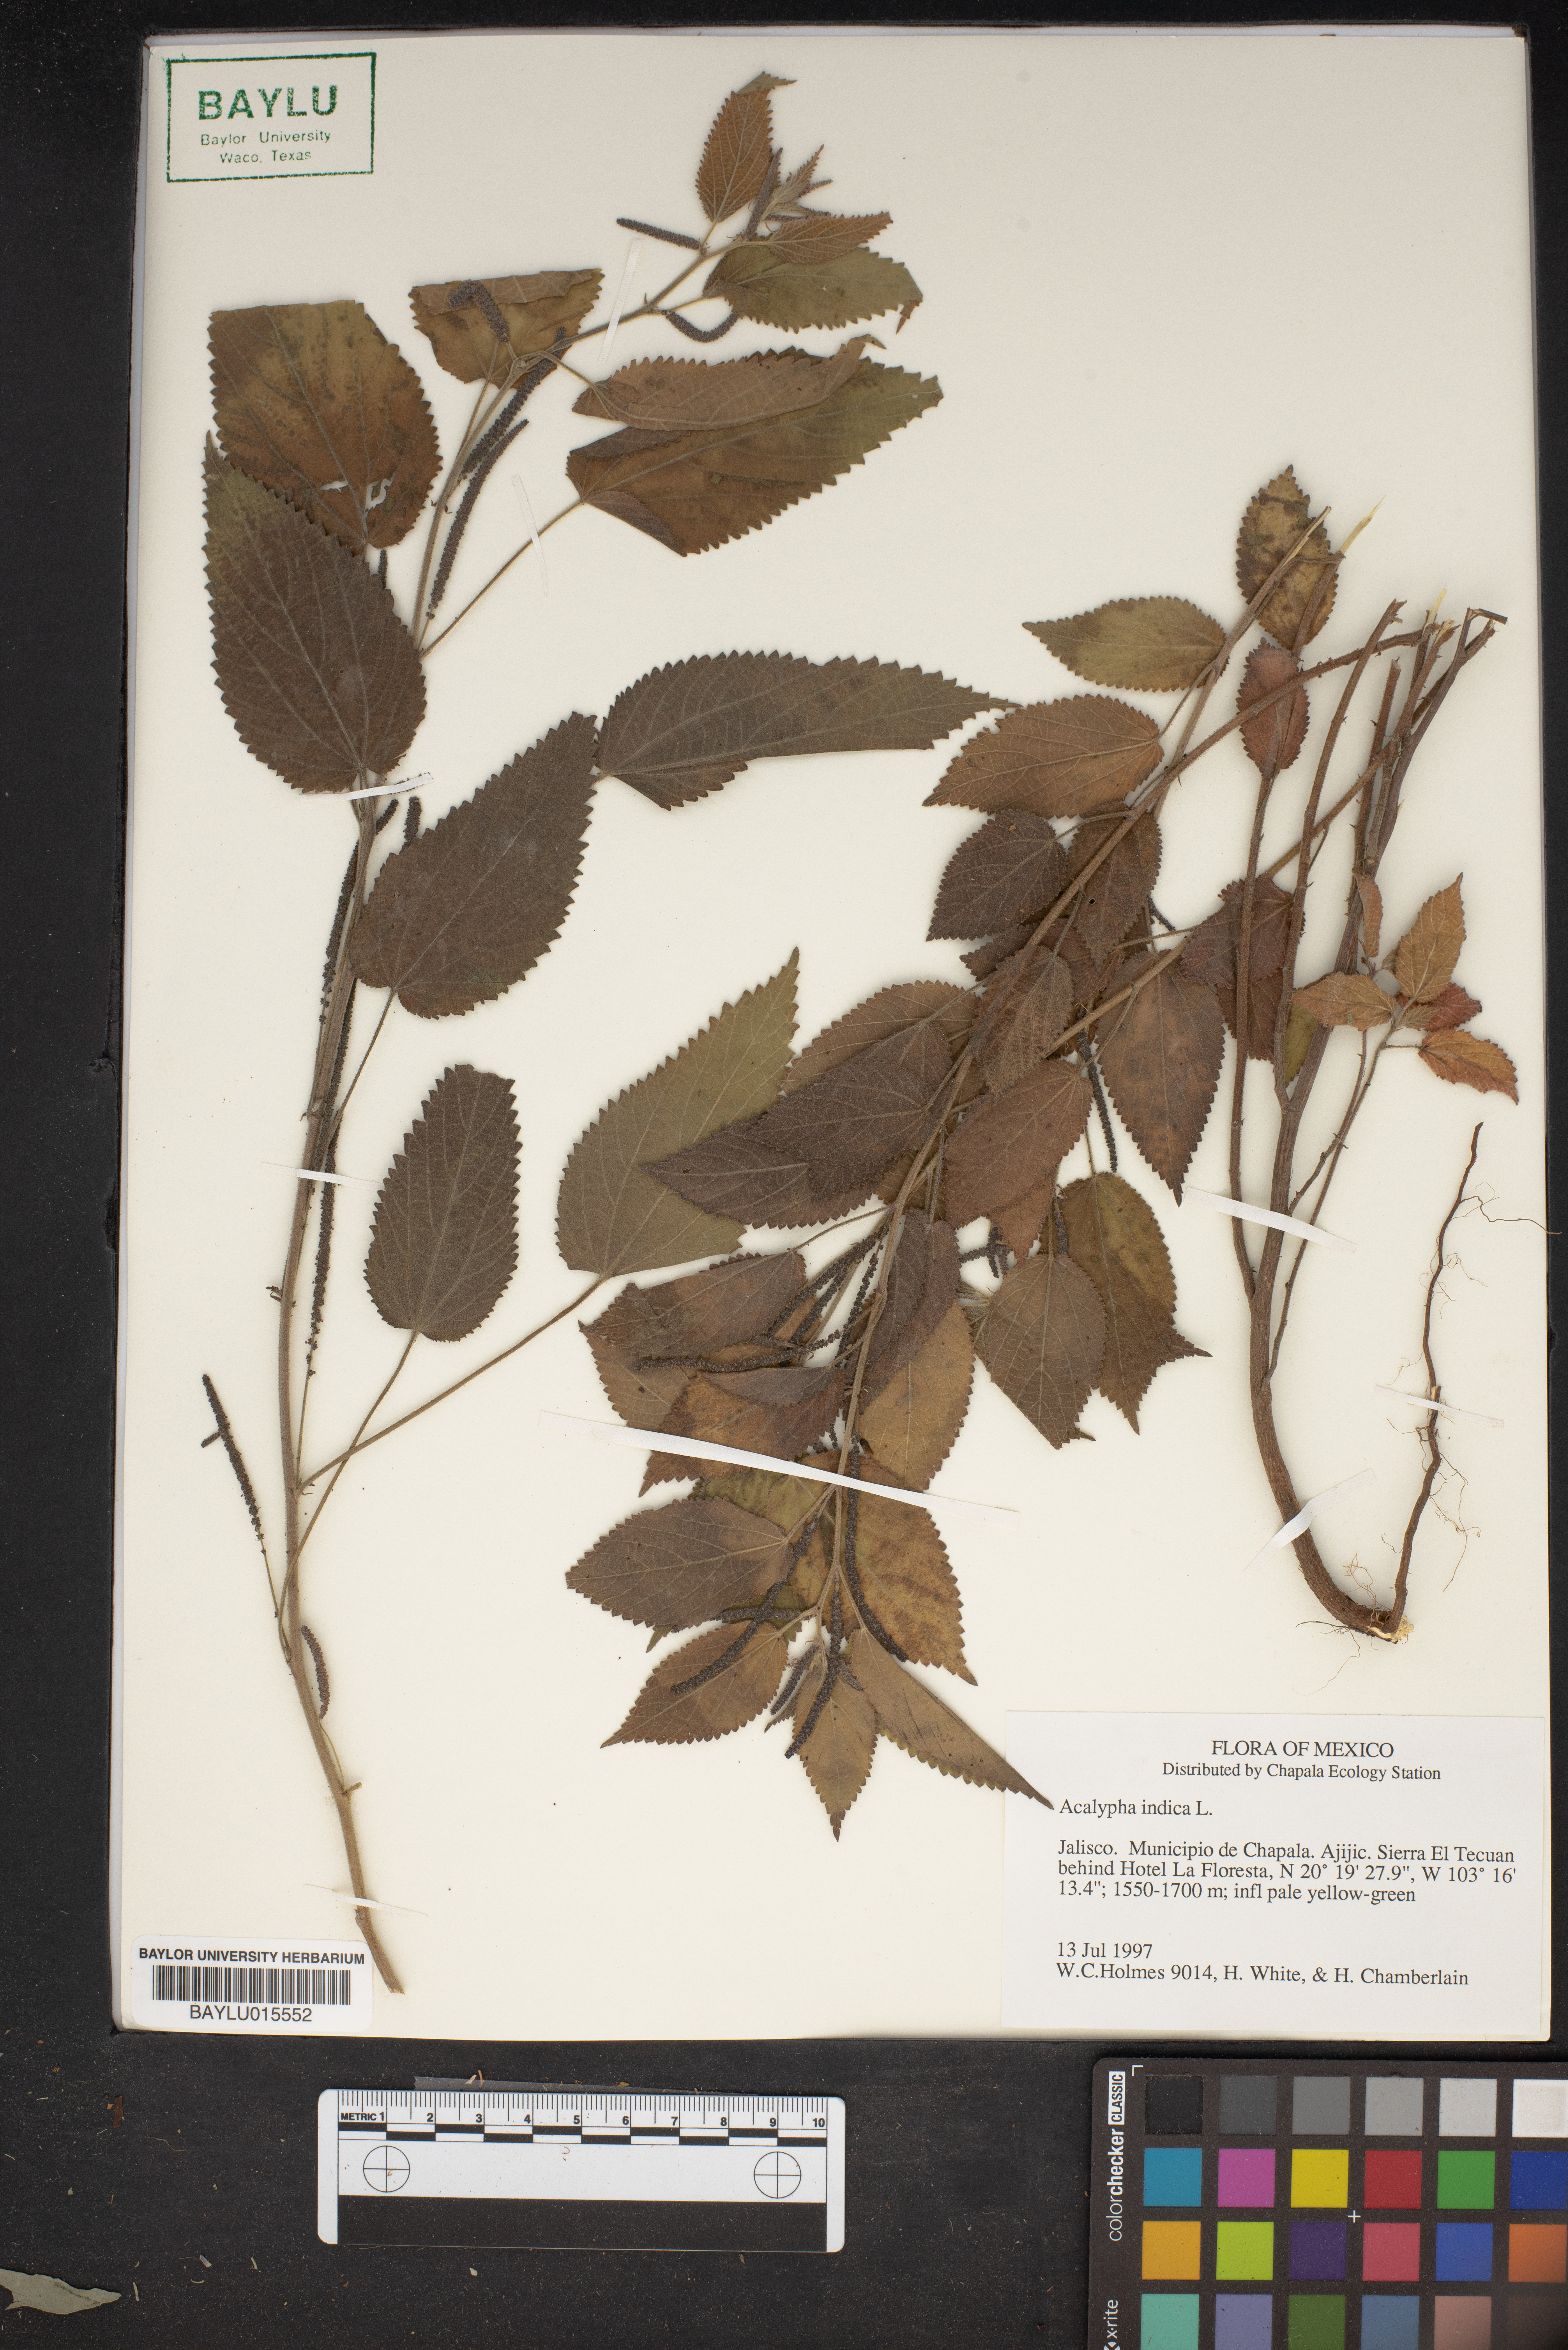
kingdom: Plantae
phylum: Tracheophyta
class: Magnoliopsida
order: Malpighiales
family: Euphorbiaceae
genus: Acalypha
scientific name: Acalypha indica
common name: Indian acalypha
